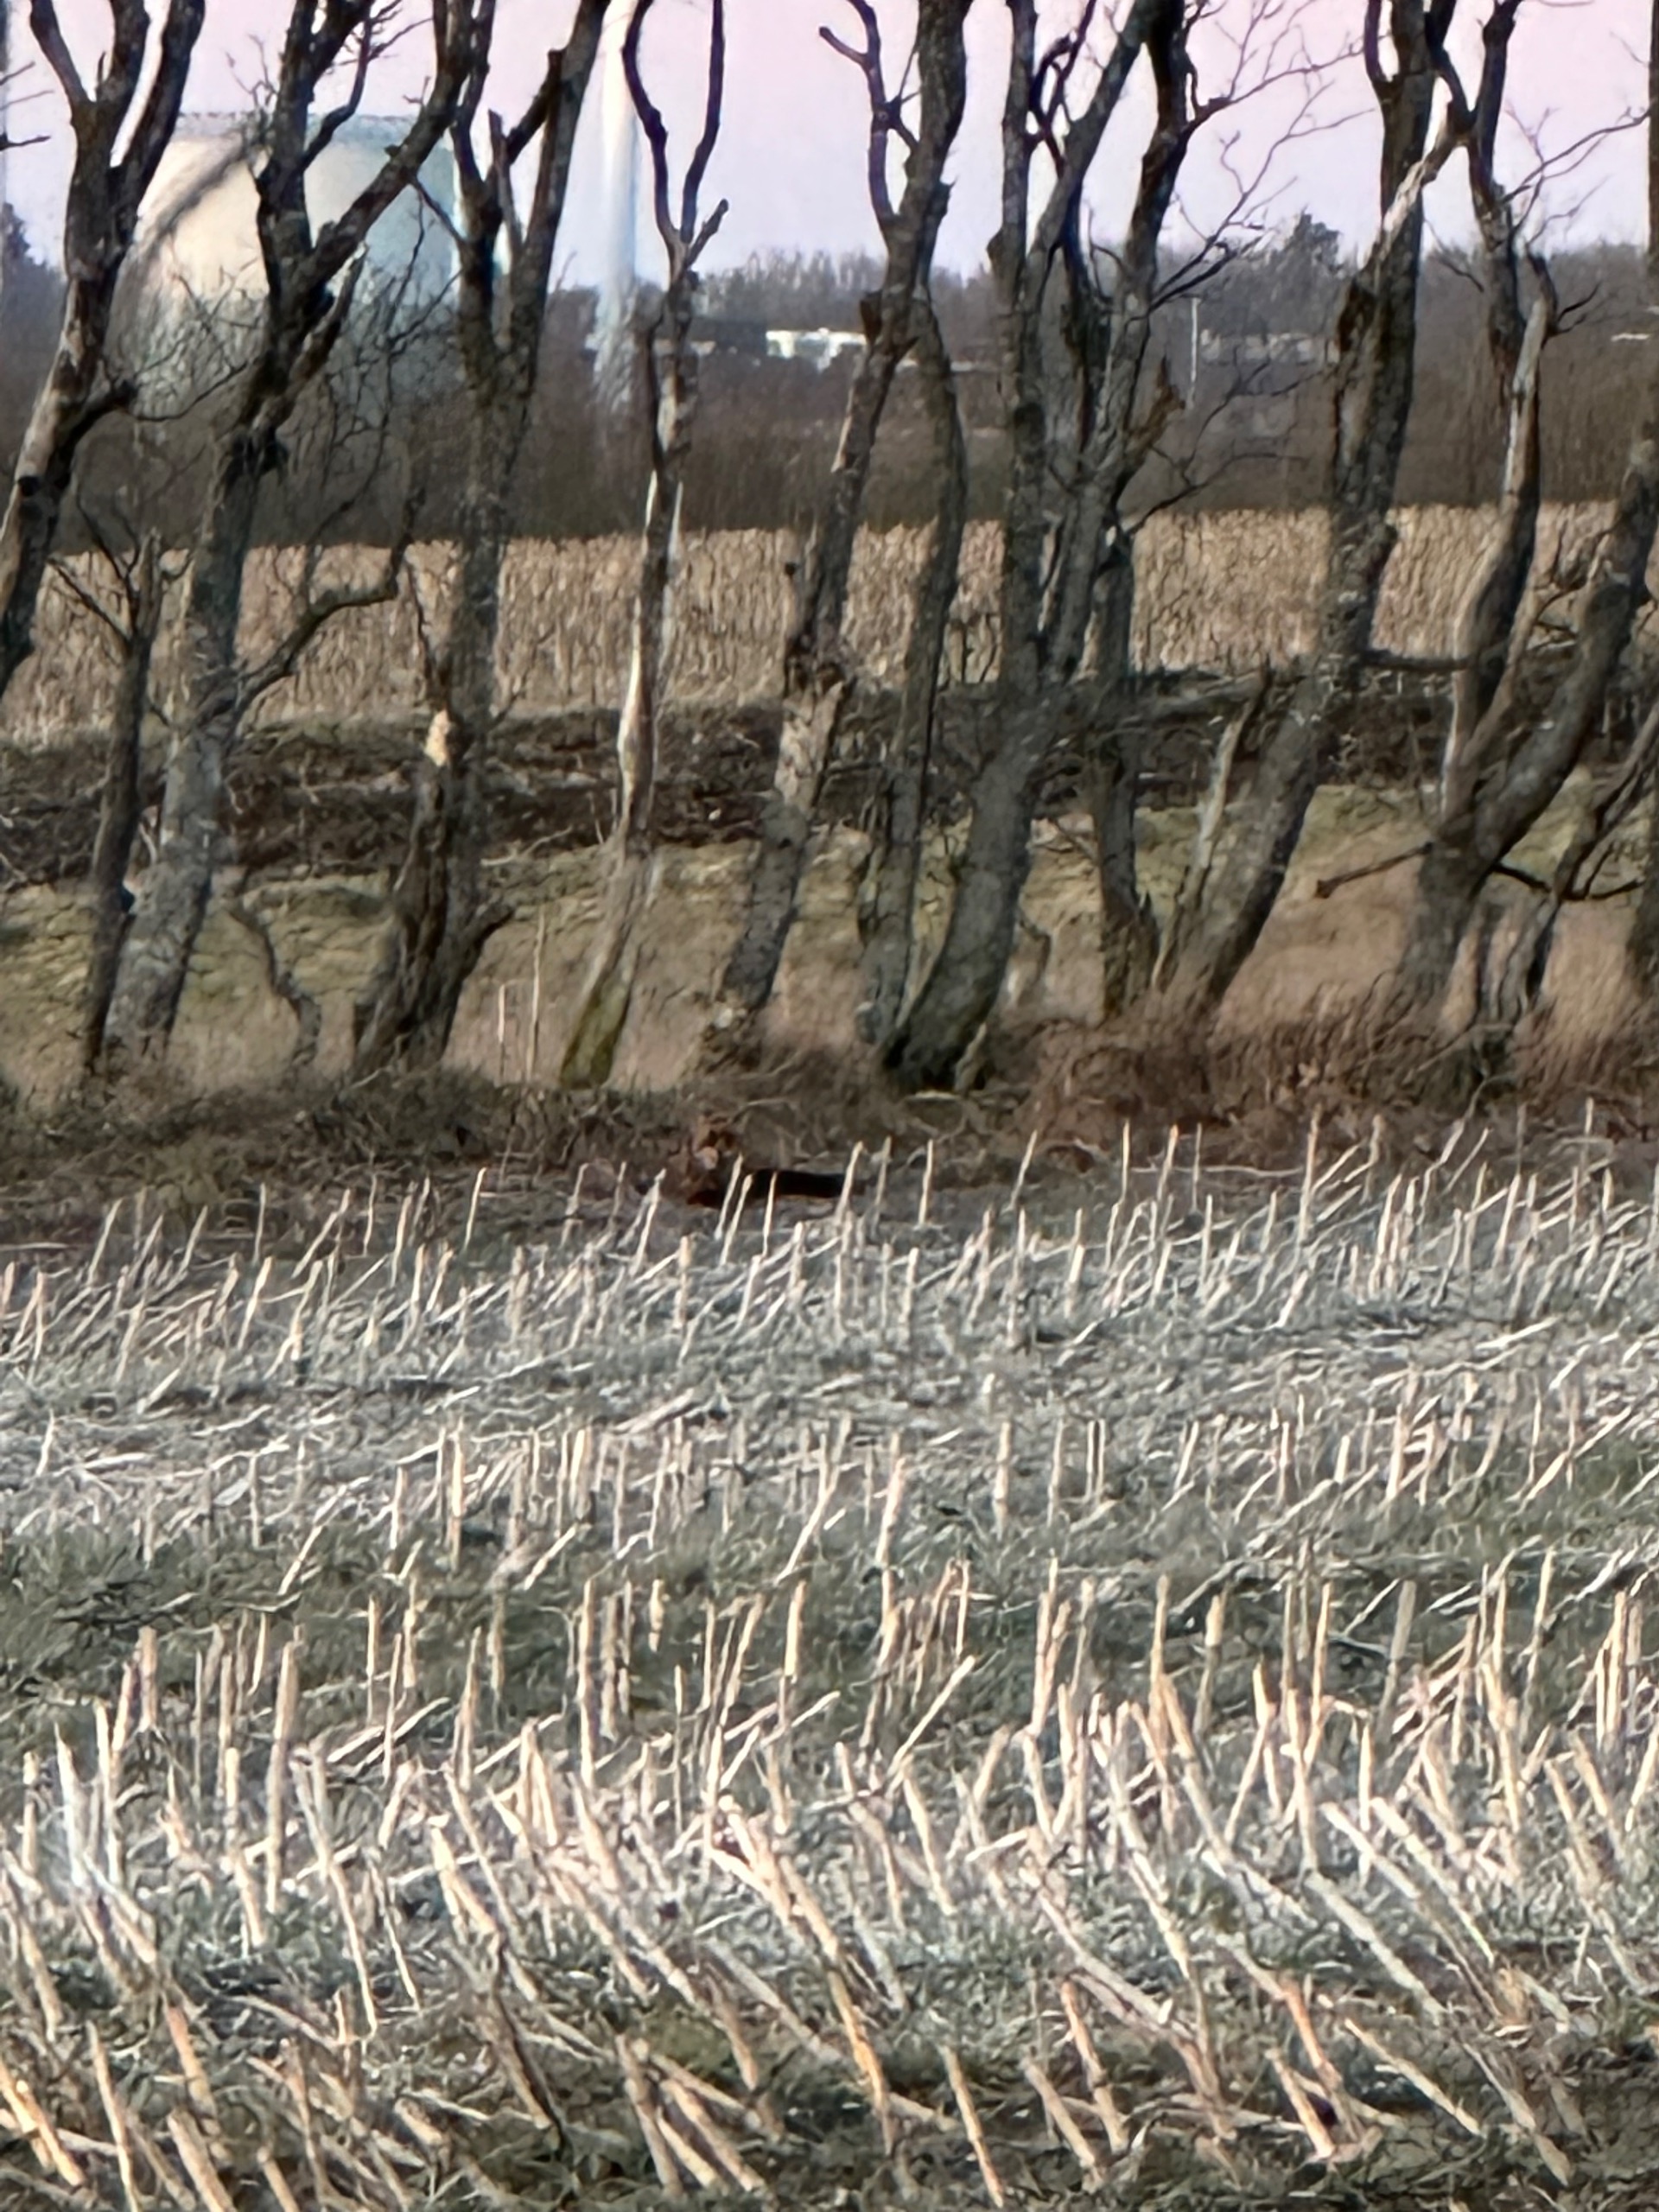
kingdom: Animalia
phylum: Chordata
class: Mammalia
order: Carnivora
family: Canidae
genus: Vulpes
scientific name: Vulpes vulpes
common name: Ræv
